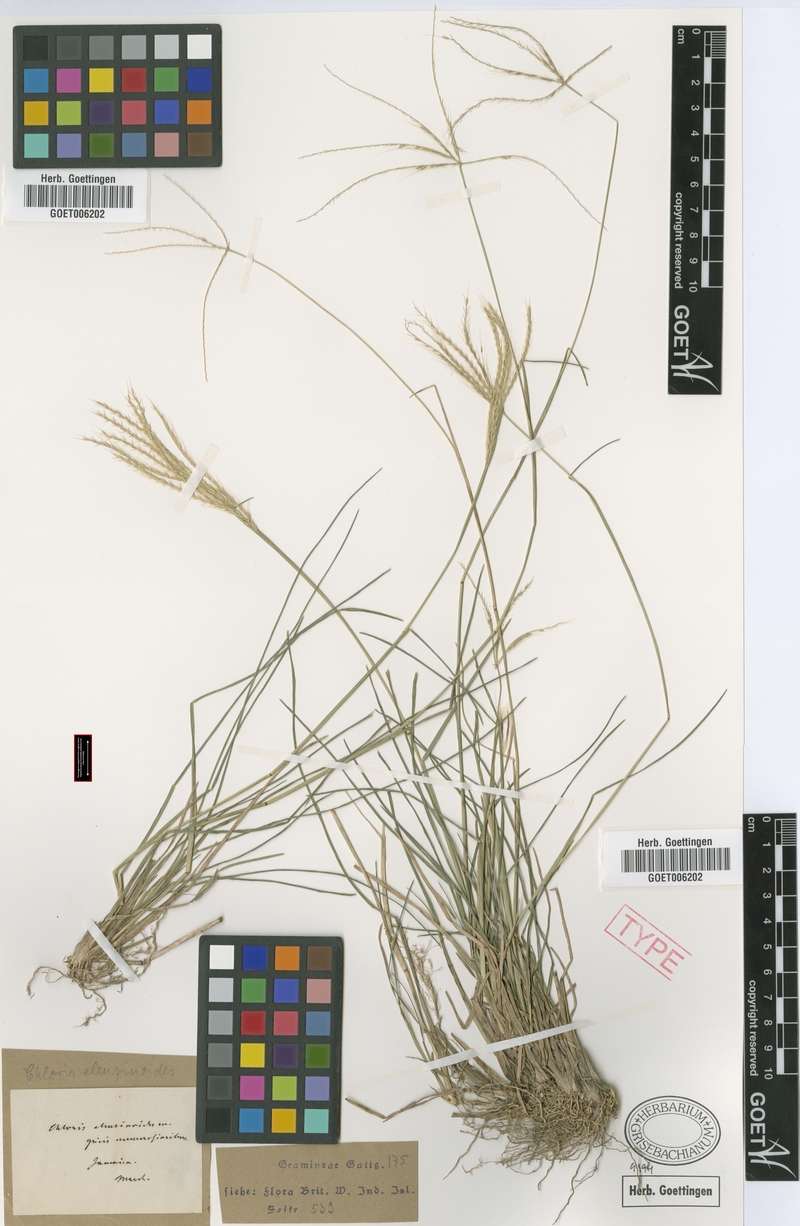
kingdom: Plantae
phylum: Tracheophyta
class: Liliopsida
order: Poales
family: Poaceae
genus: Chloris
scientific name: Chloris sagraeana
